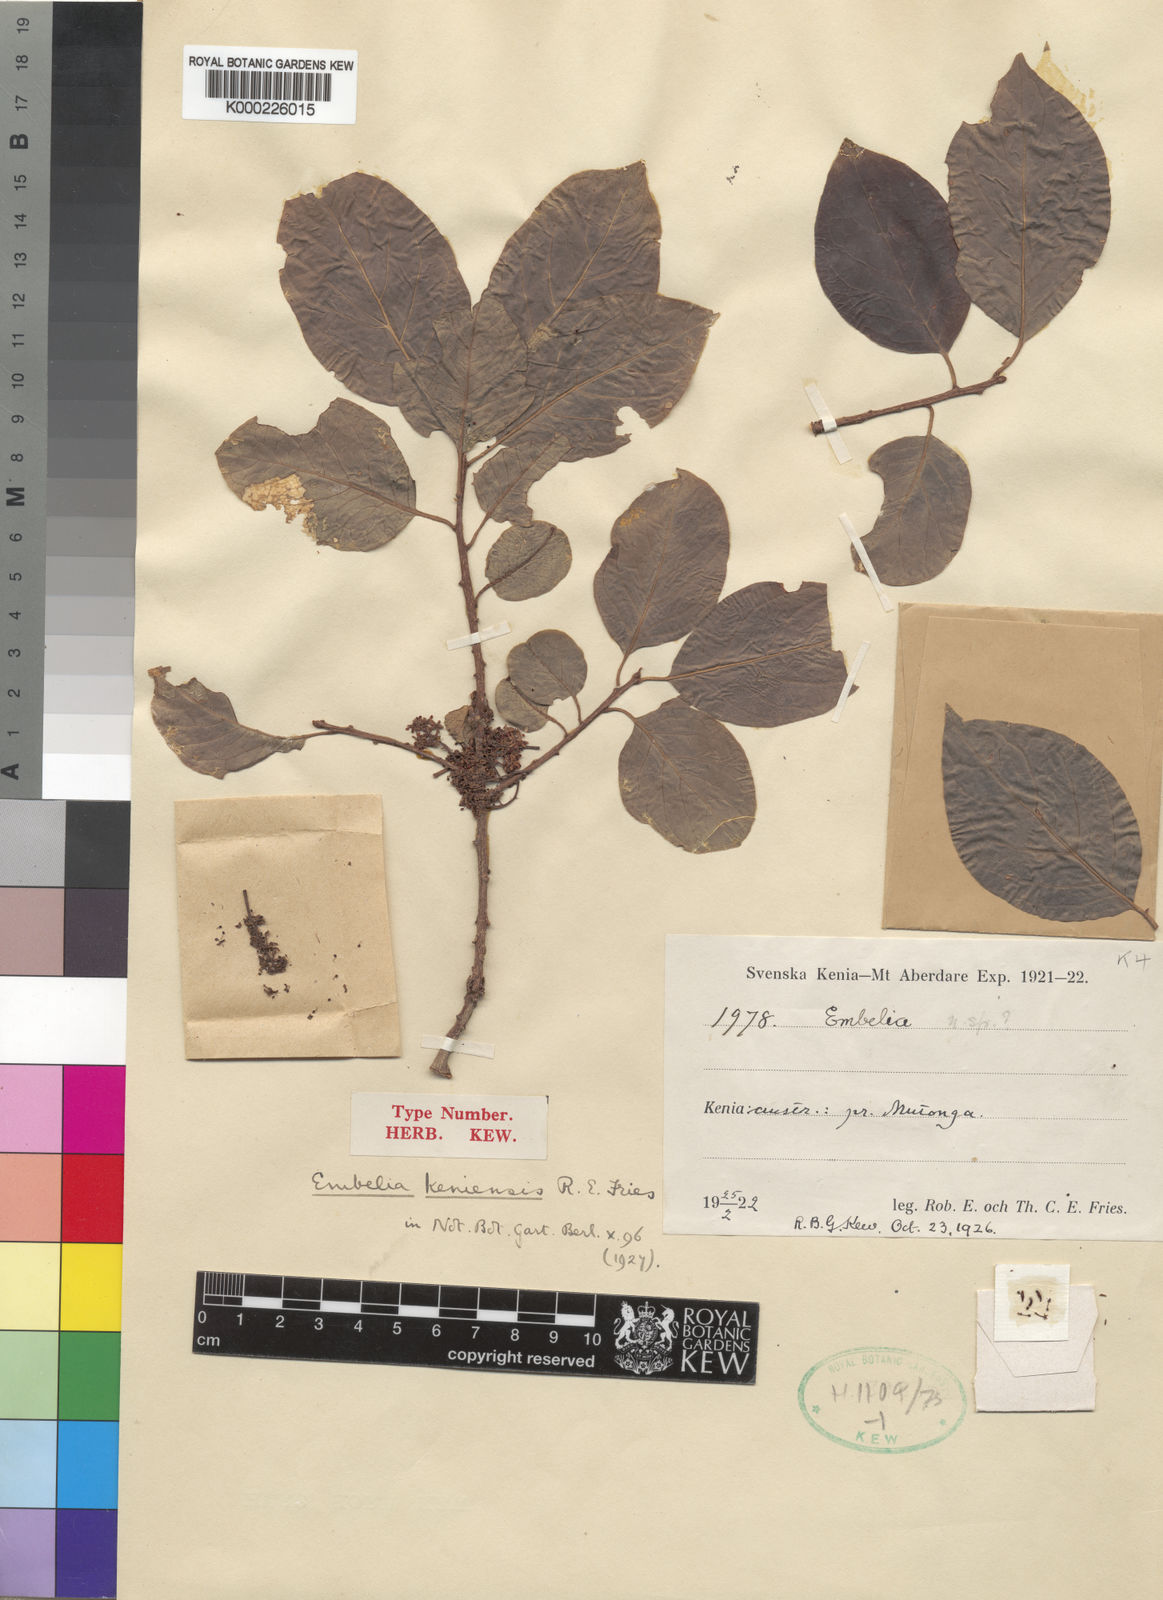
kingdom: Plantae
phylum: Tracheophyta
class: Magnoliopsida
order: Ericales
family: Primulaceae
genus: Embelia
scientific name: Embelia keniensis
